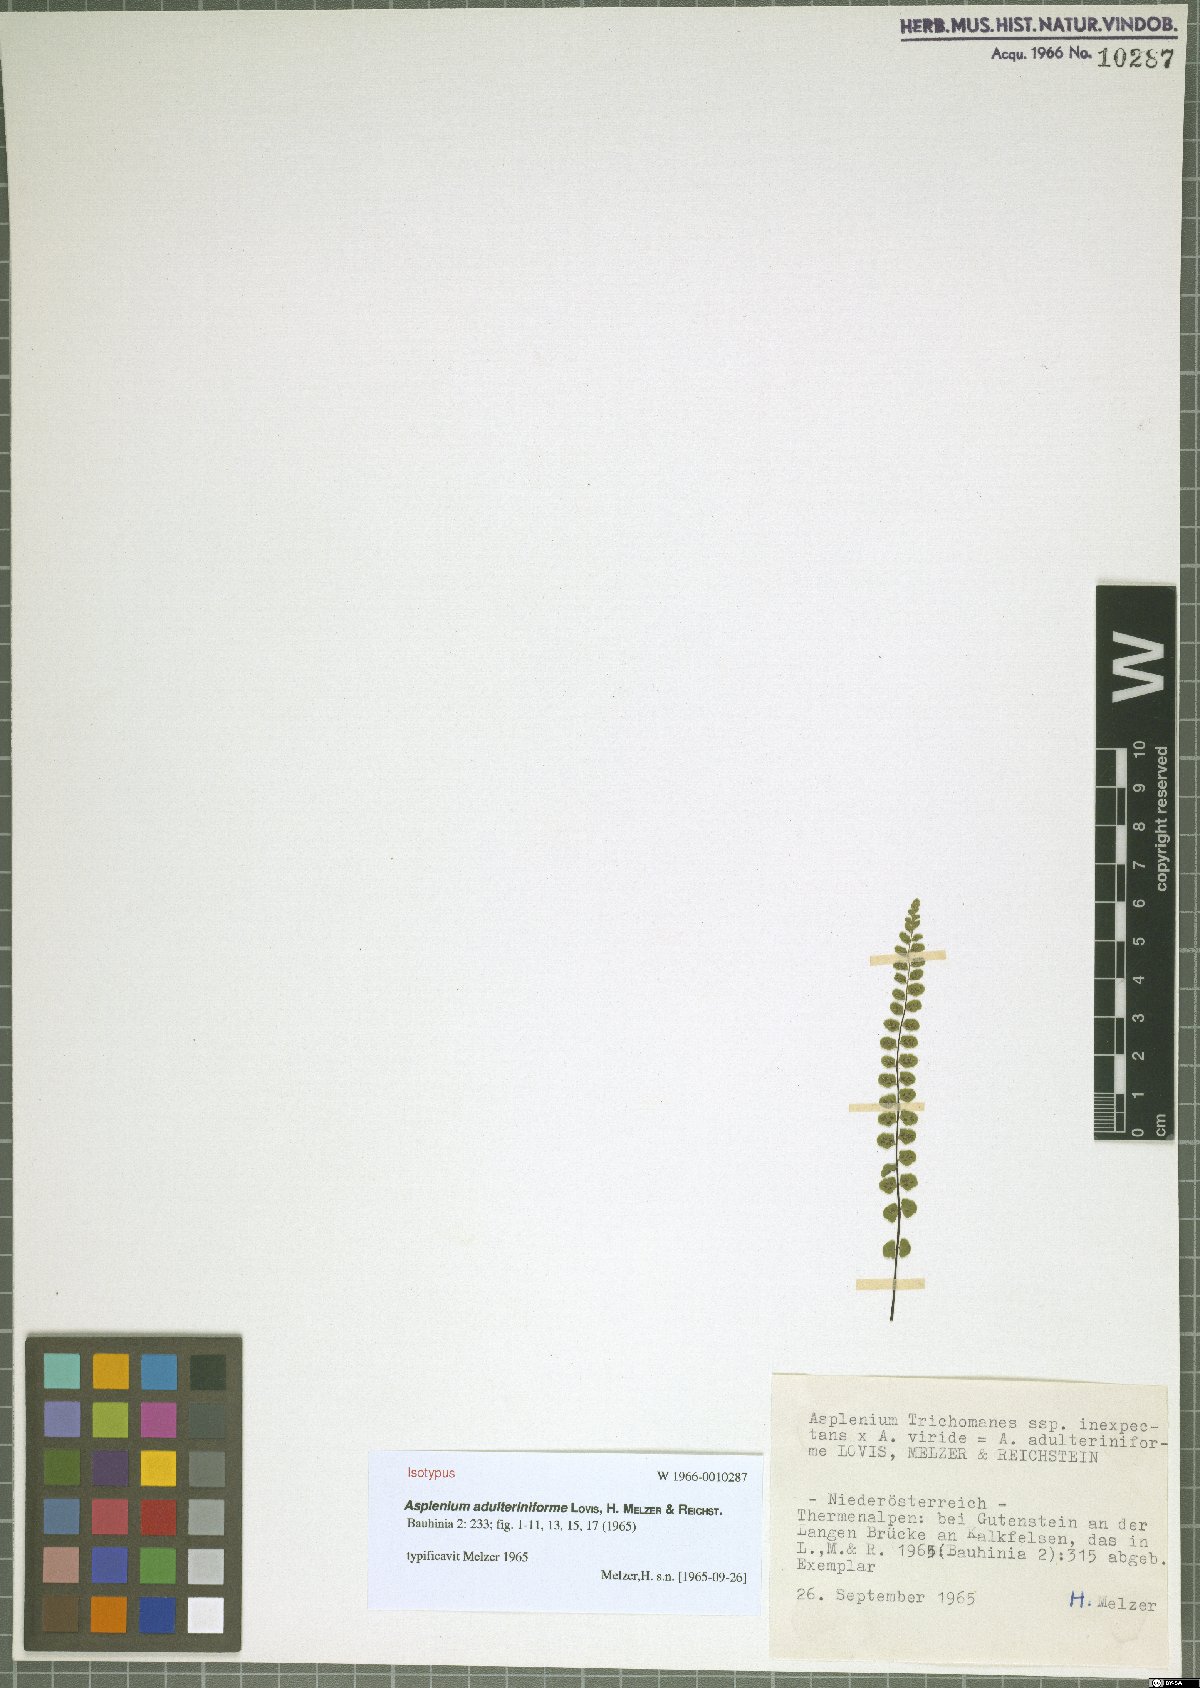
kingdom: Plantae
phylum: Tracheophyta
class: Polypodiopsida
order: Polypodiales
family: Aspleniaceae
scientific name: Aspleniaceae
